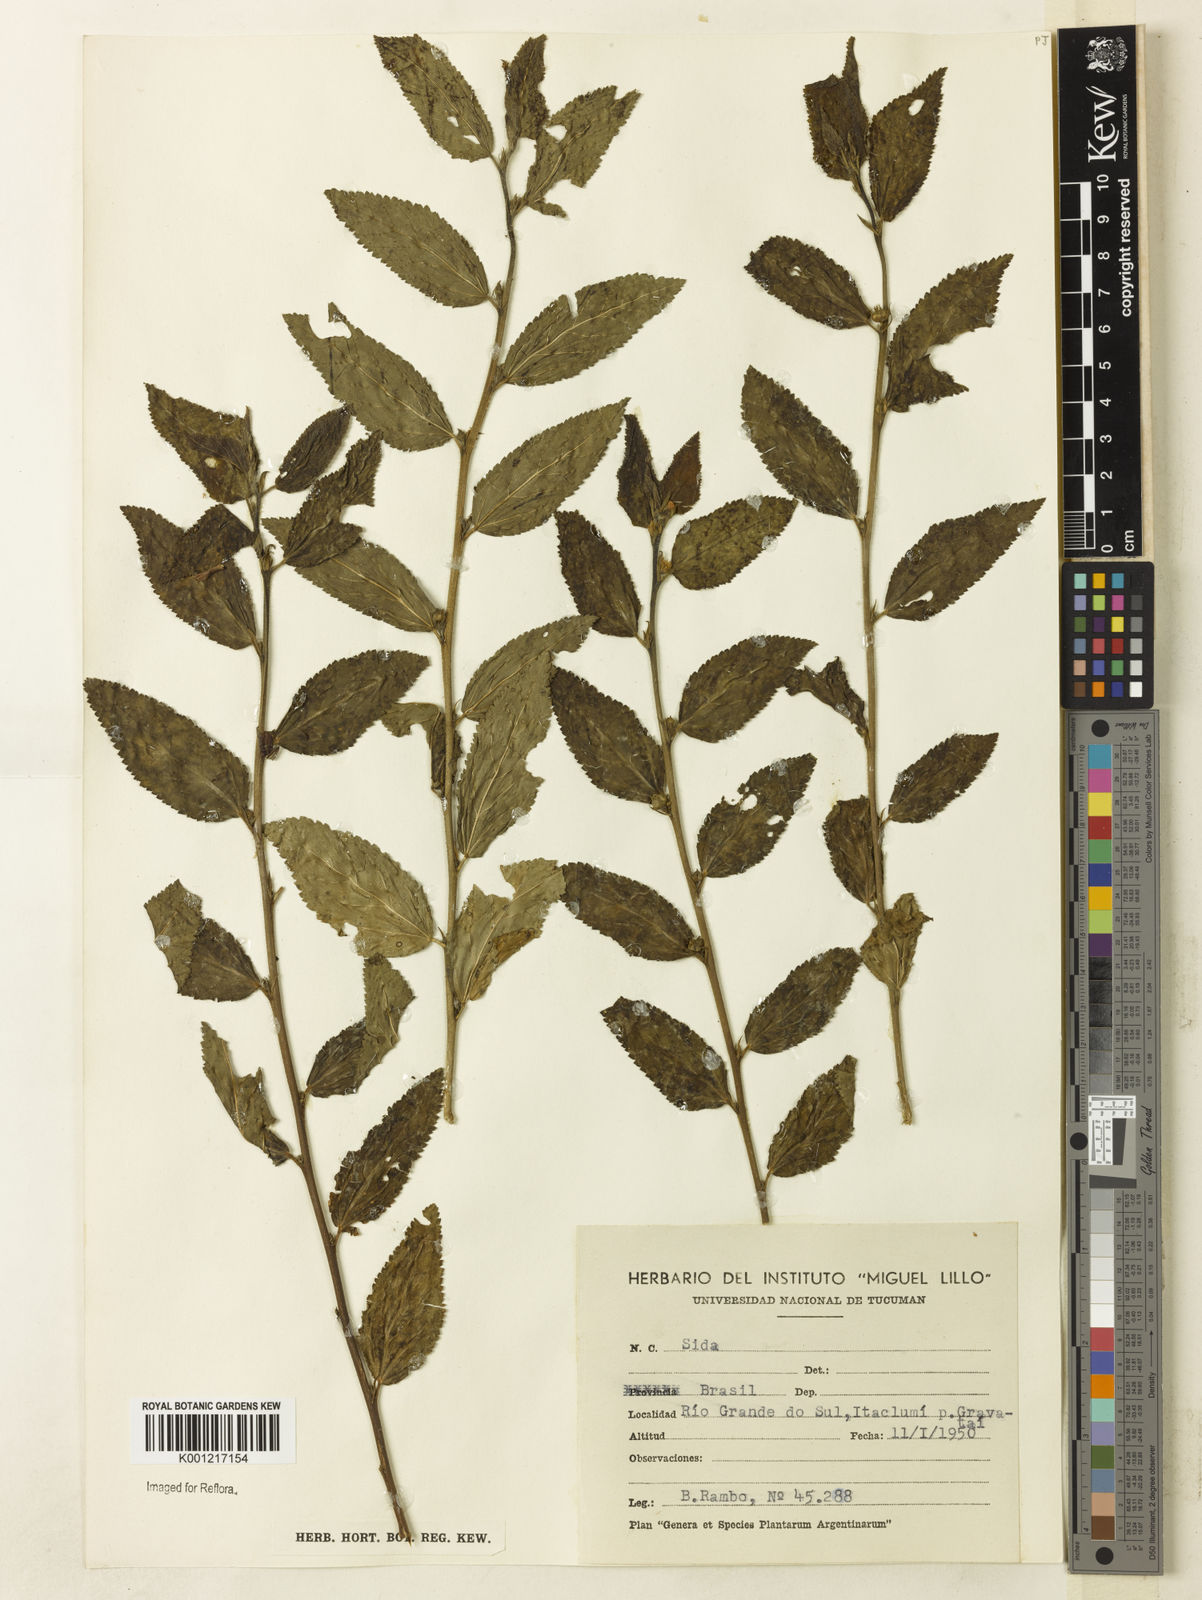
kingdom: Plantae
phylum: Tracheophyta
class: Magnoliopsida
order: Malvales
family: Malvaceae
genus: Sida
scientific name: Sida
